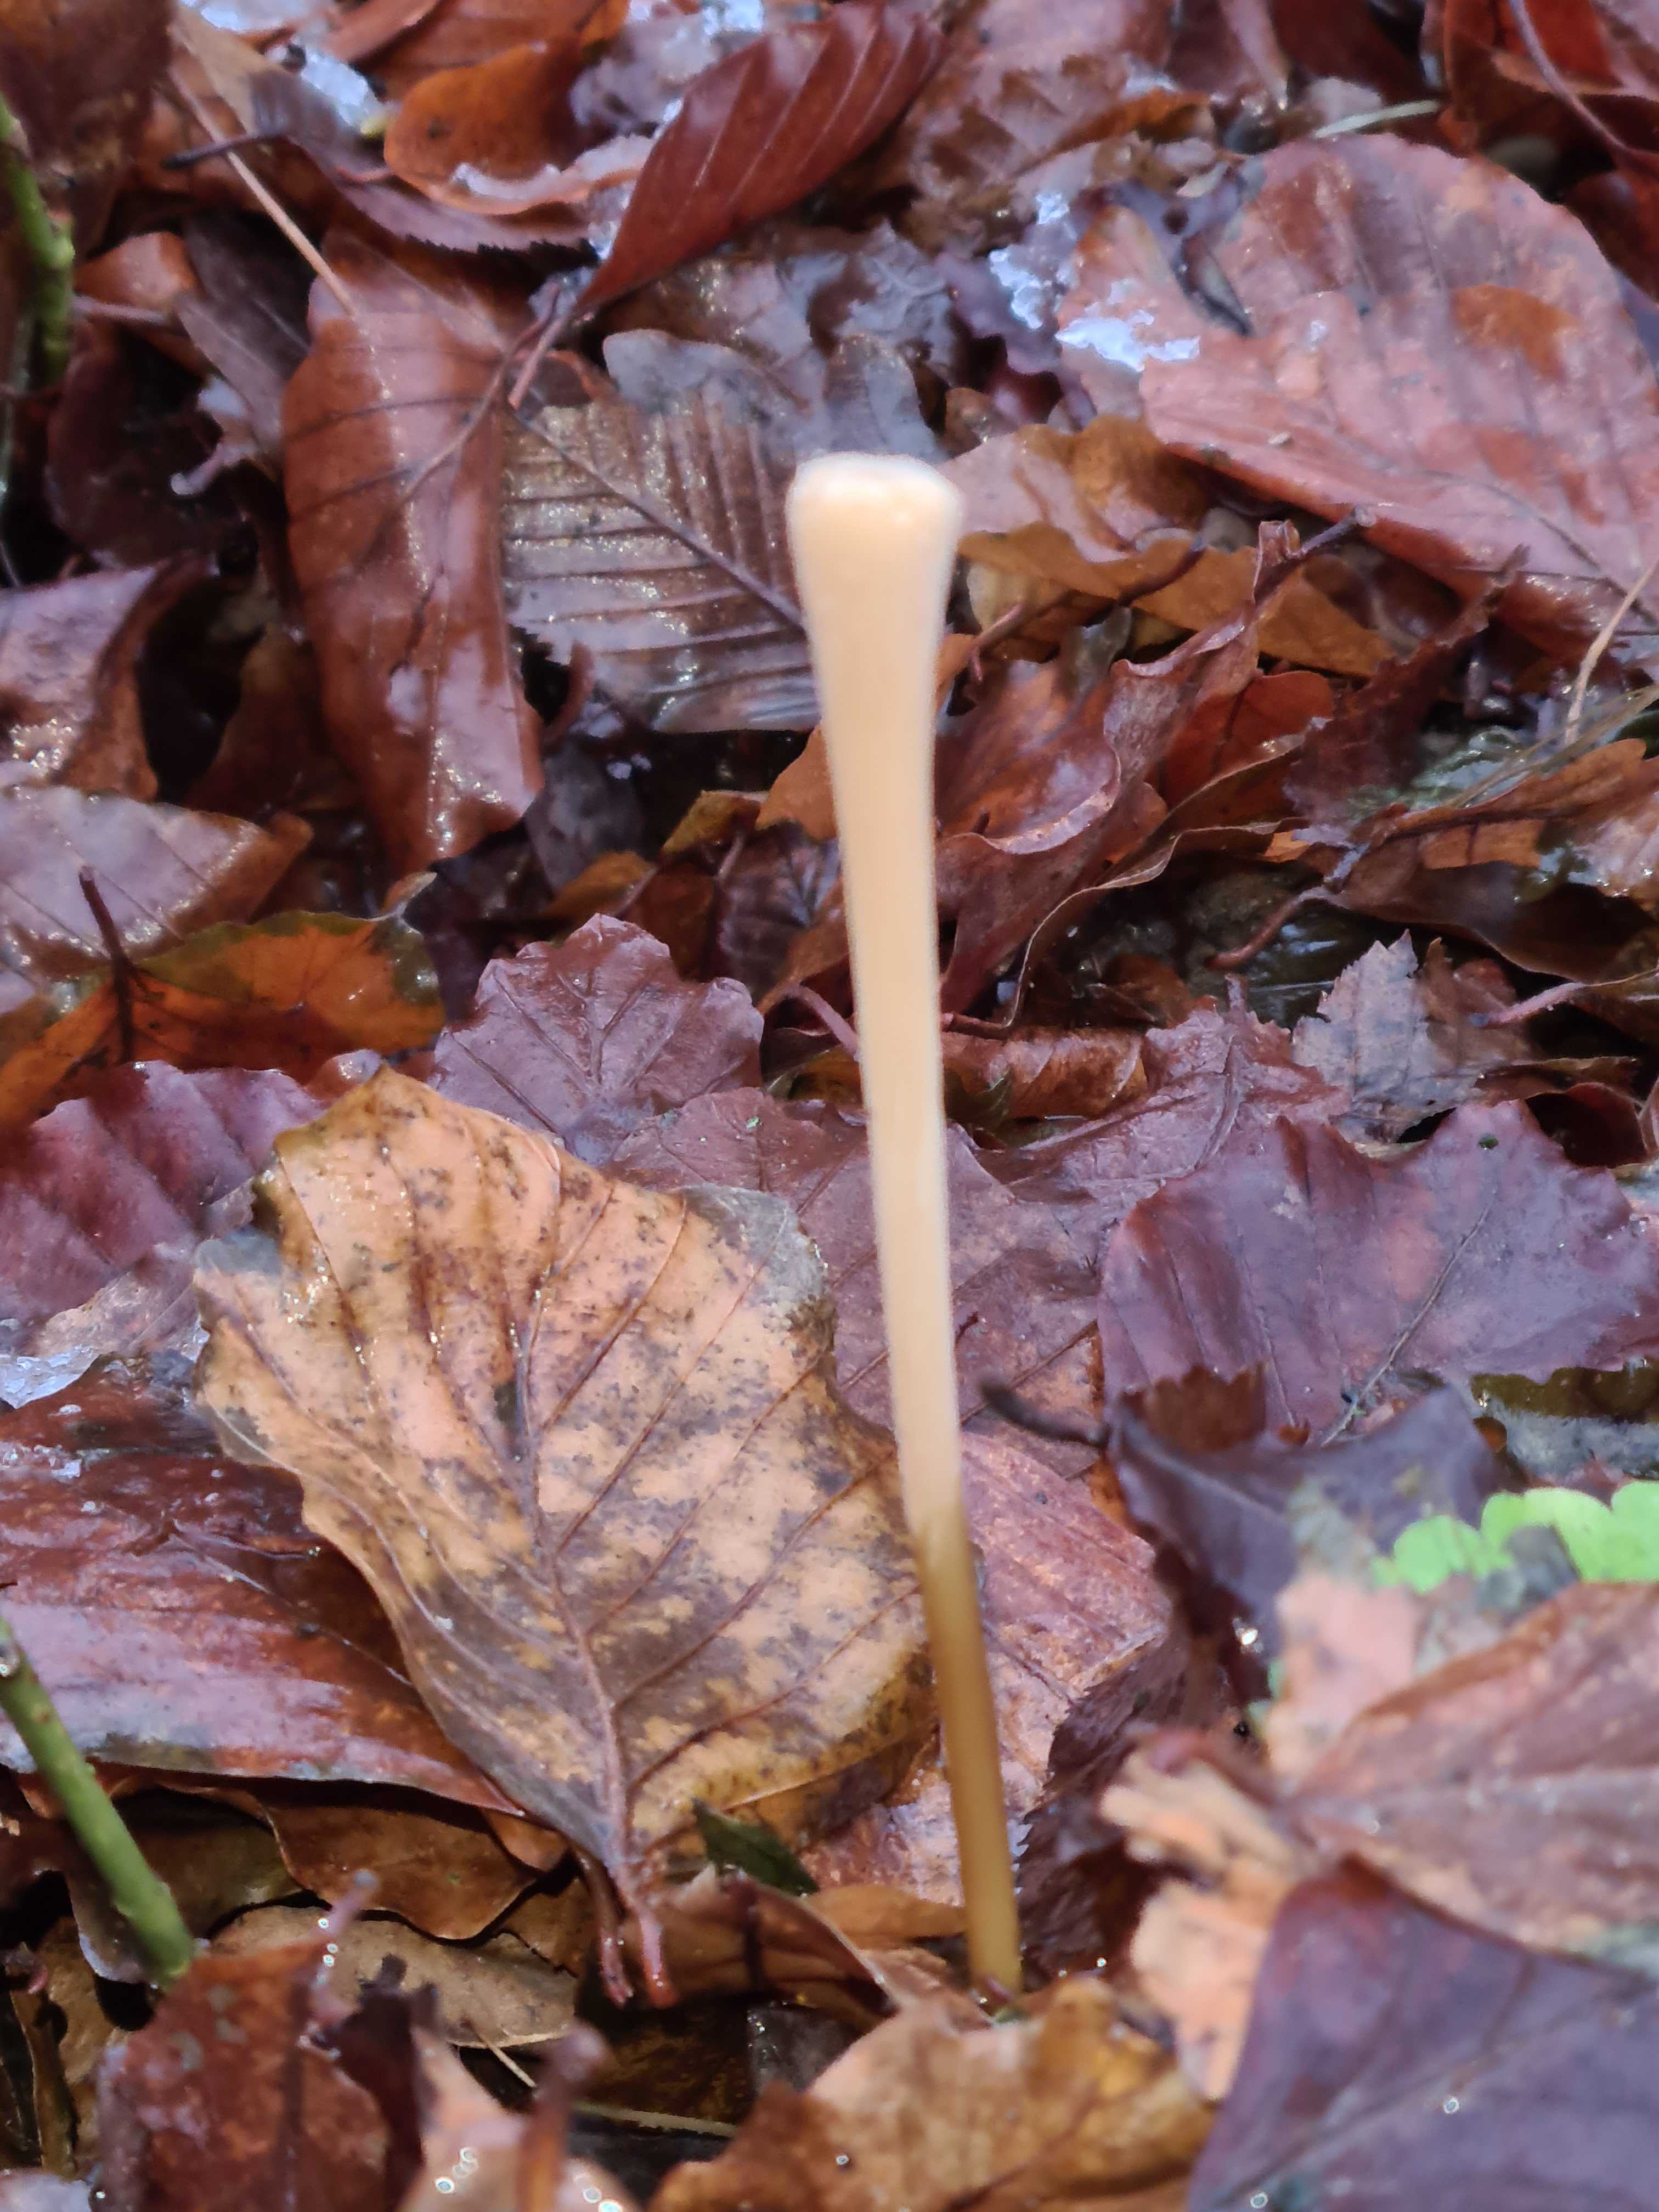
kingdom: Fungi
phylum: Basidiomycota
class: Agaricomycetes
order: Agaricales
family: Typhulaceae
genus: Typhula
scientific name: Typhula fistulosa
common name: pibet rørkølle
